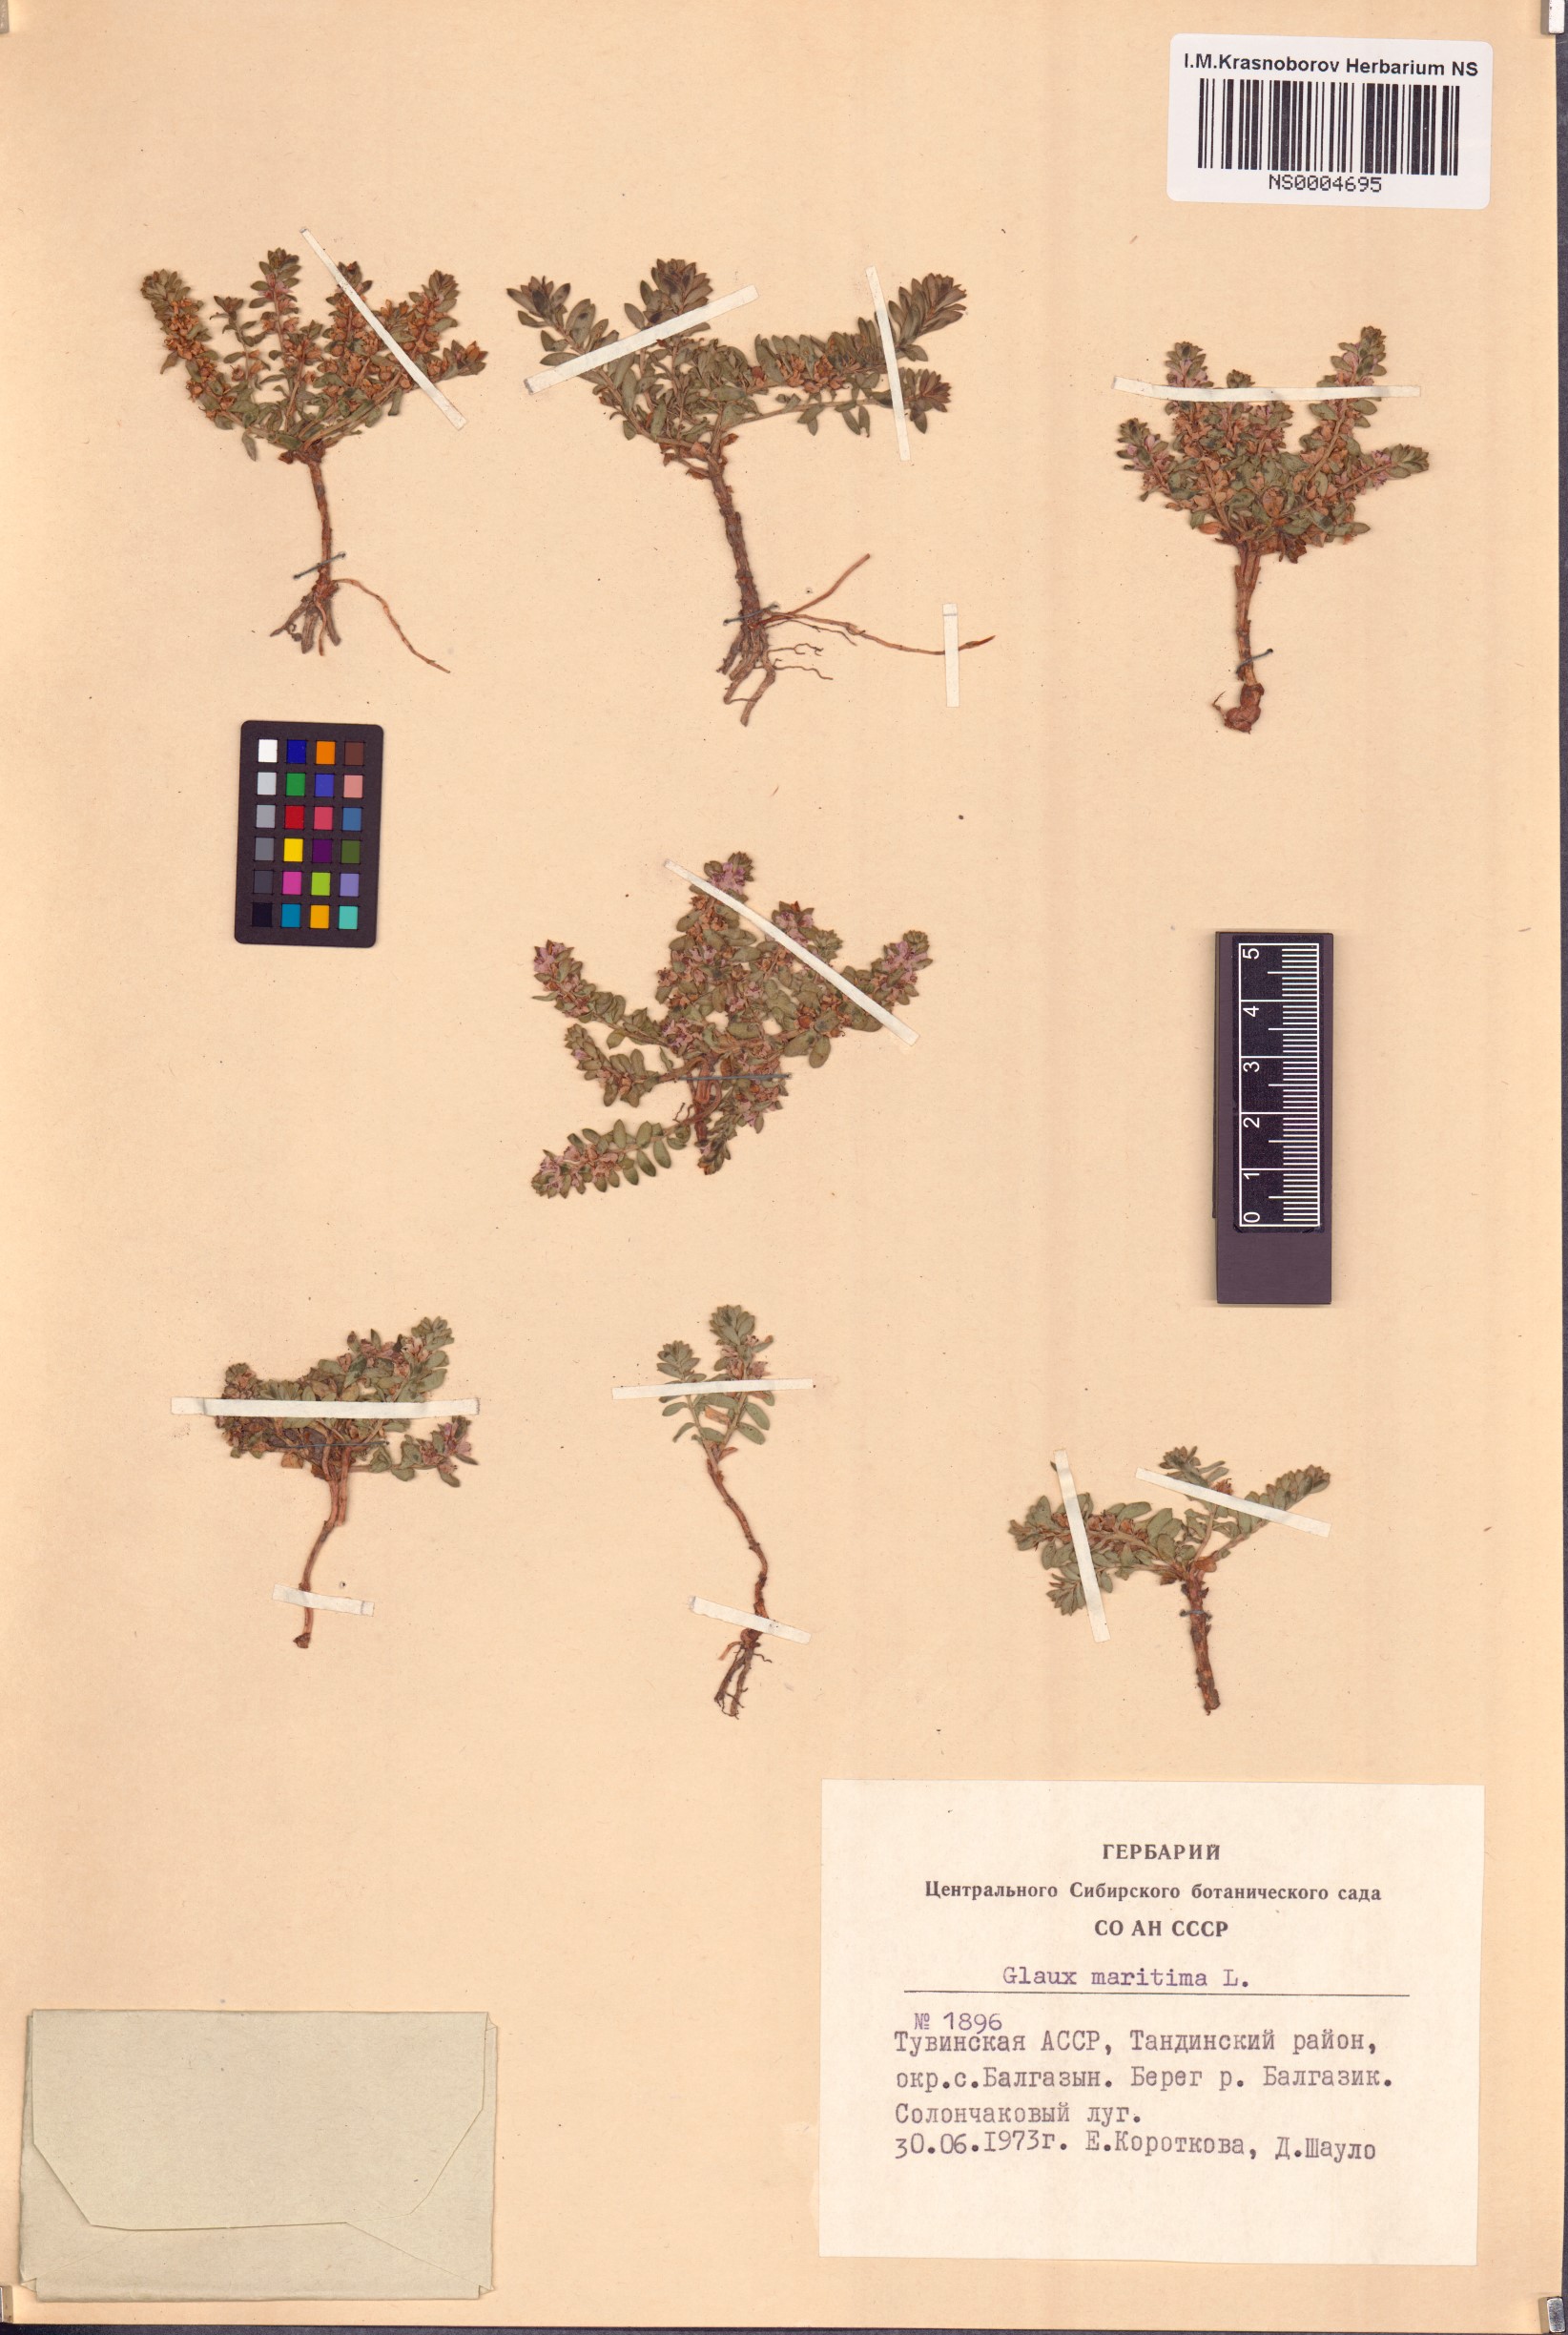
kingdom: Plantae
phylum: Tracheophyta
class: Magnoliopsida
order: Ericales
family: Primulaceae
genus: Lysimachia
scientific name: Lysimachia maritima
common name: Sea milkwort
